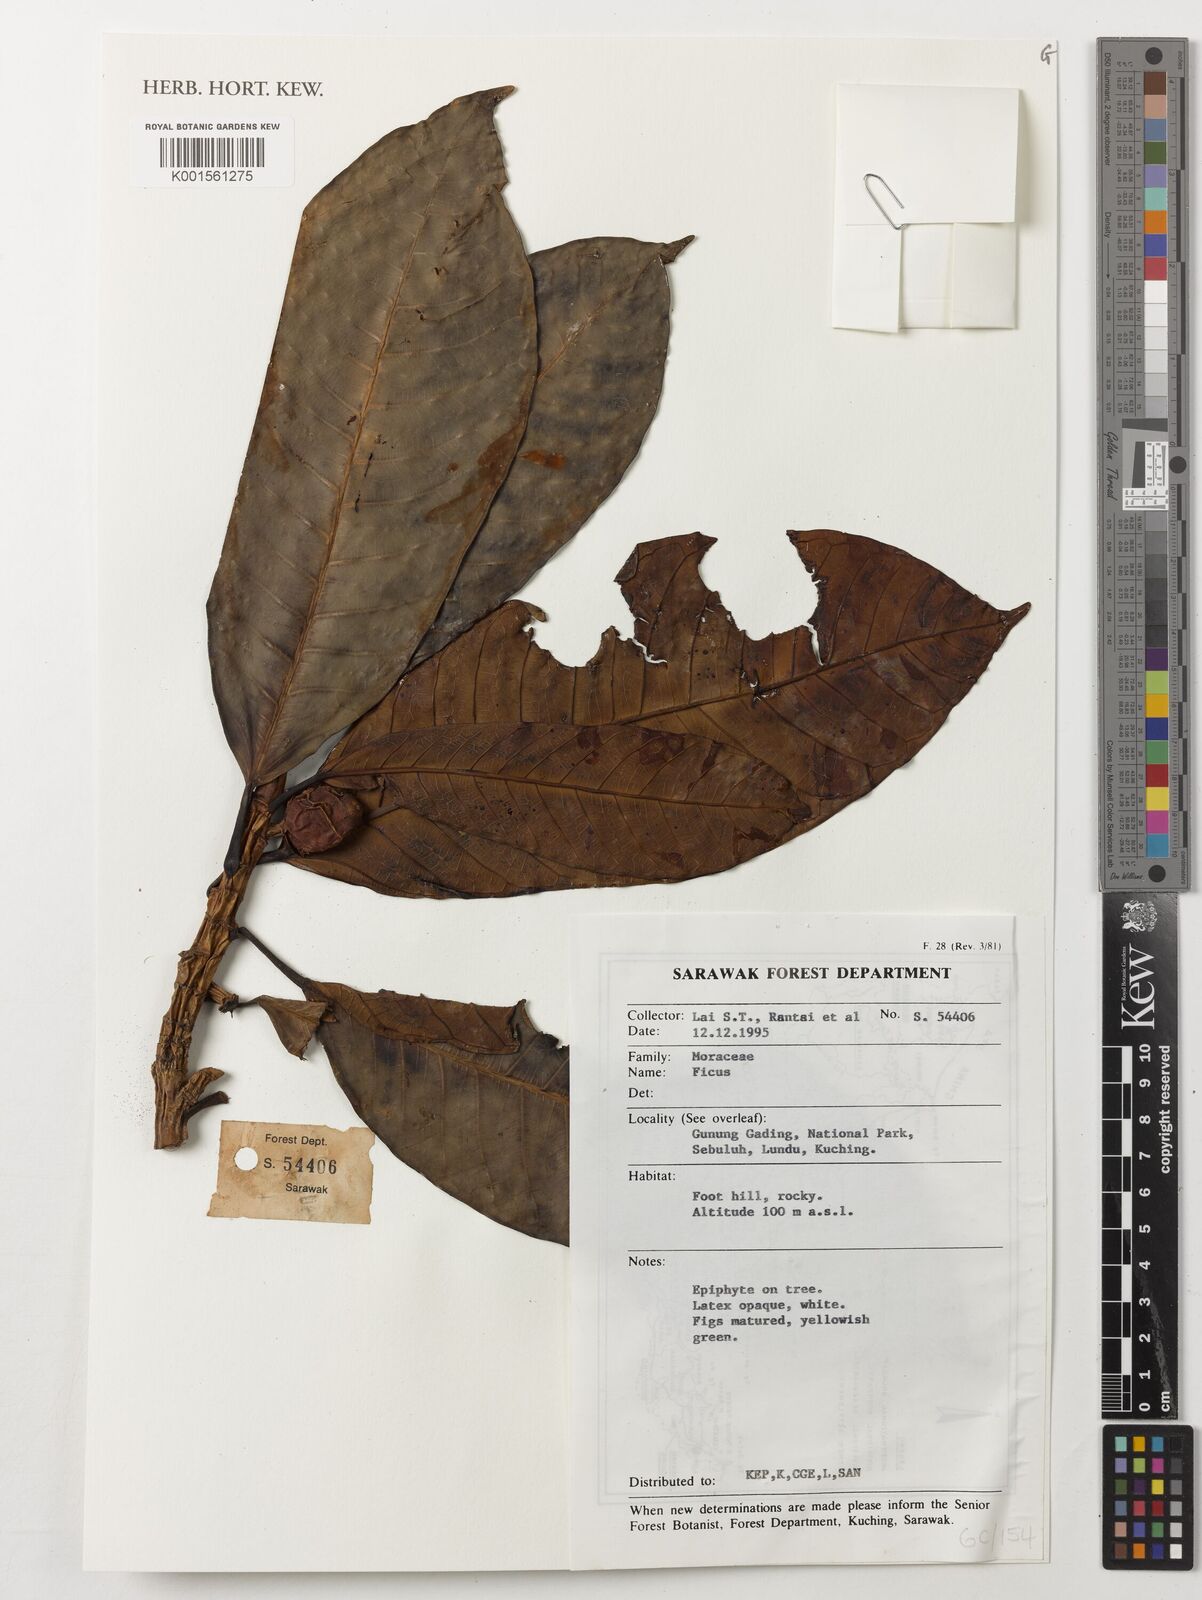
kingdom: Plantae
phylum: Tracheophyta
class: Magnoliopsida
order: Rosales
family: Moraceae
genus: Ficus
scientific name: Ficus
